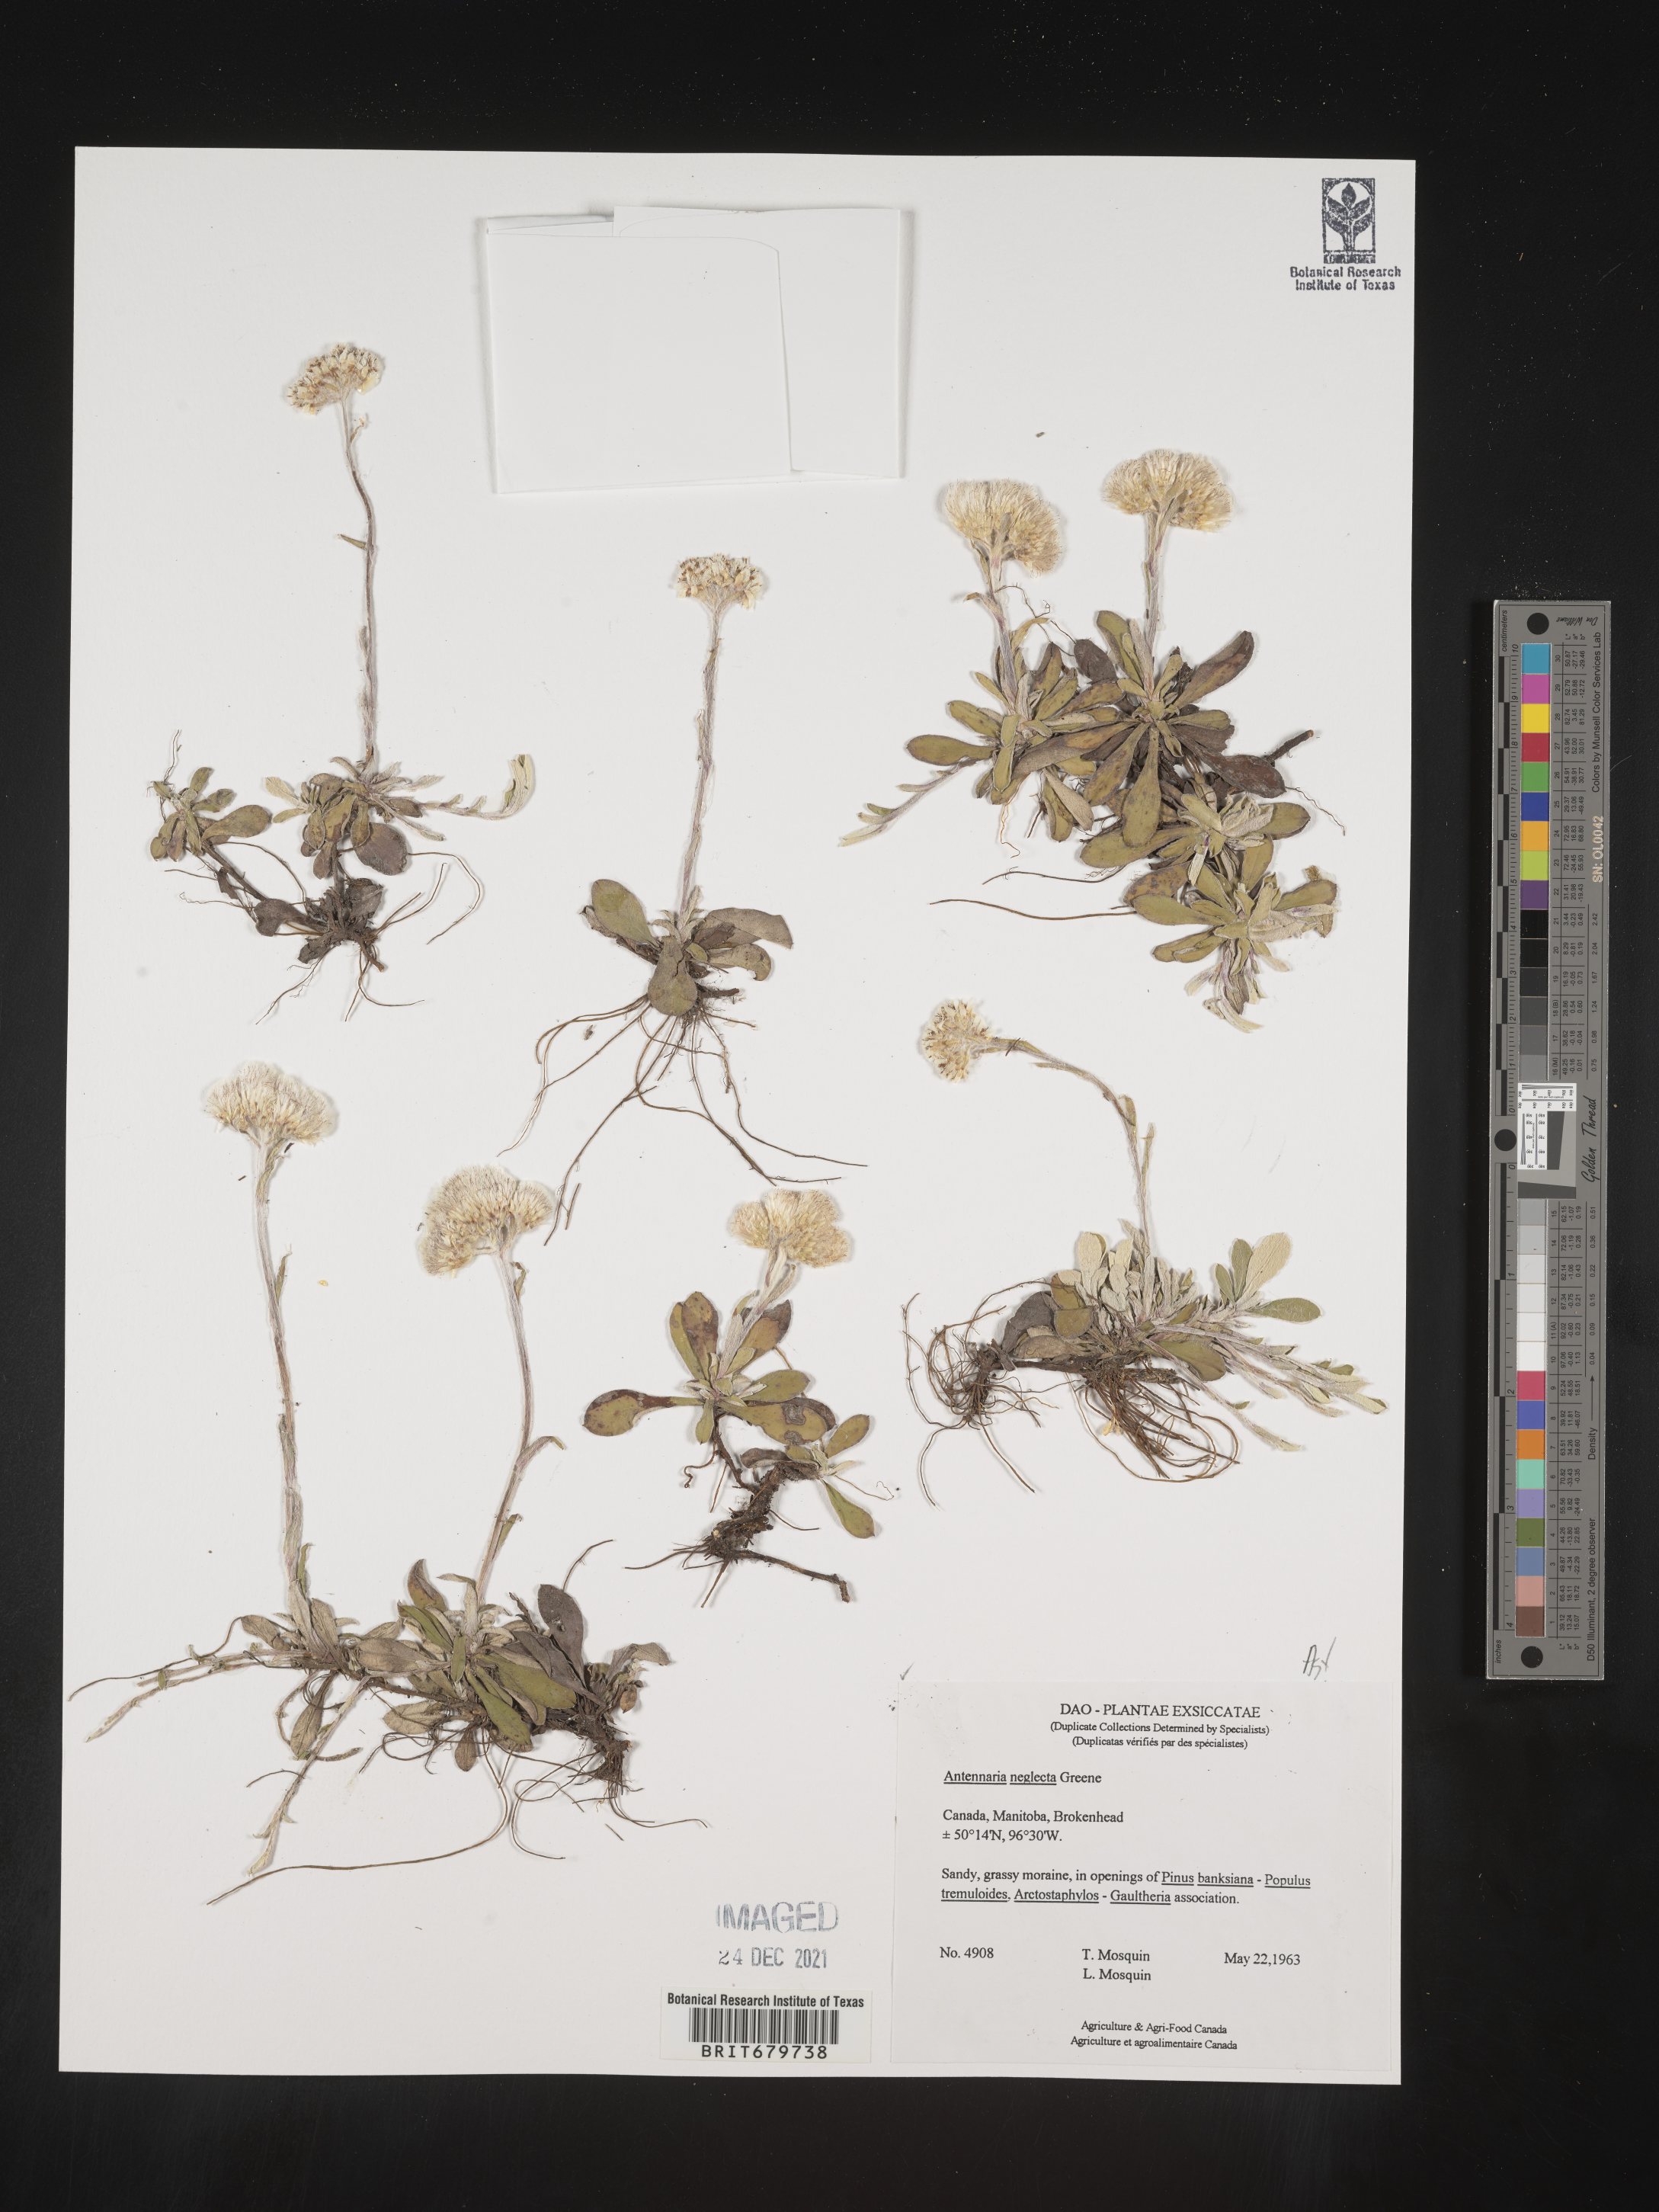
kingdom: Plantae
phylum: Tracheophyta
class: Magnoliopsida
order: Asterales
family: Asteraceae
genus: Antennaria
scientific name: Antennaria neglecta
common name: Field pussytoes
